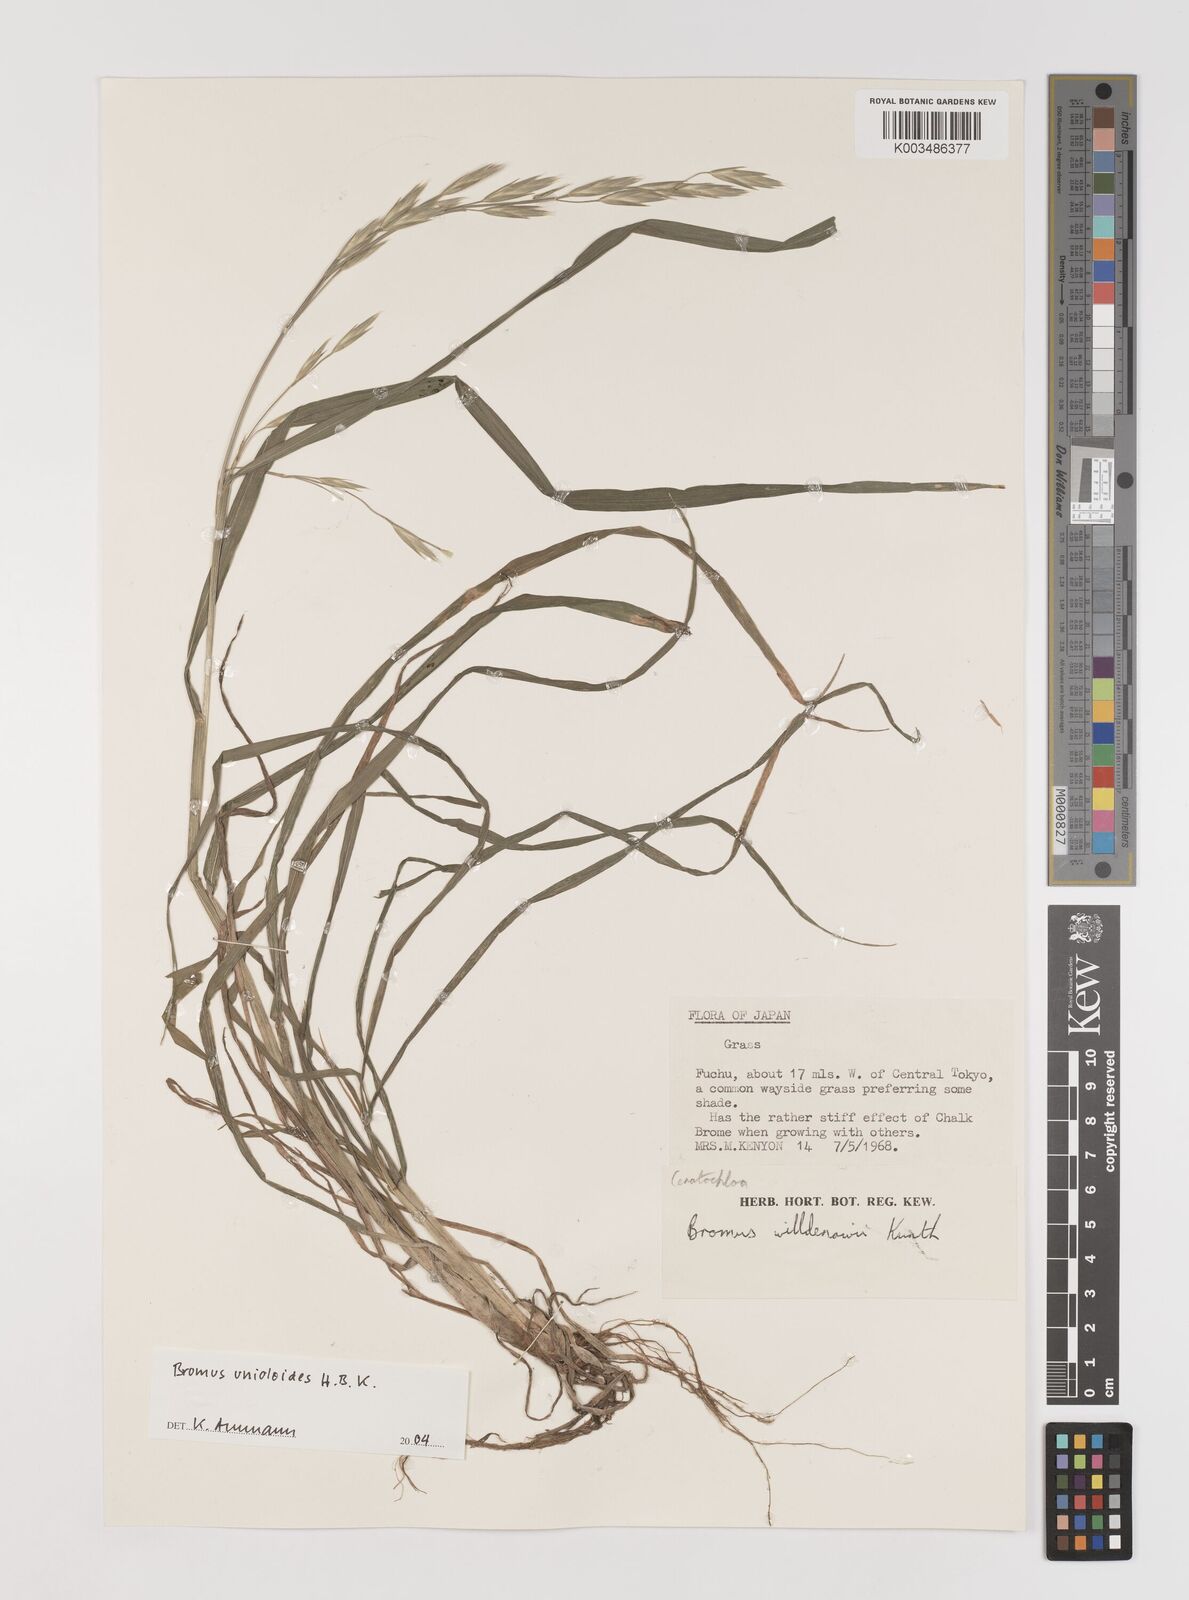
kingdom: Plantae
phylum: Tracheophyta
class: Liliopsida
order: Poales
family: Poaceae
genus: Bromus
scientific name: Bromus catharticus
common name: Rescuegrass
